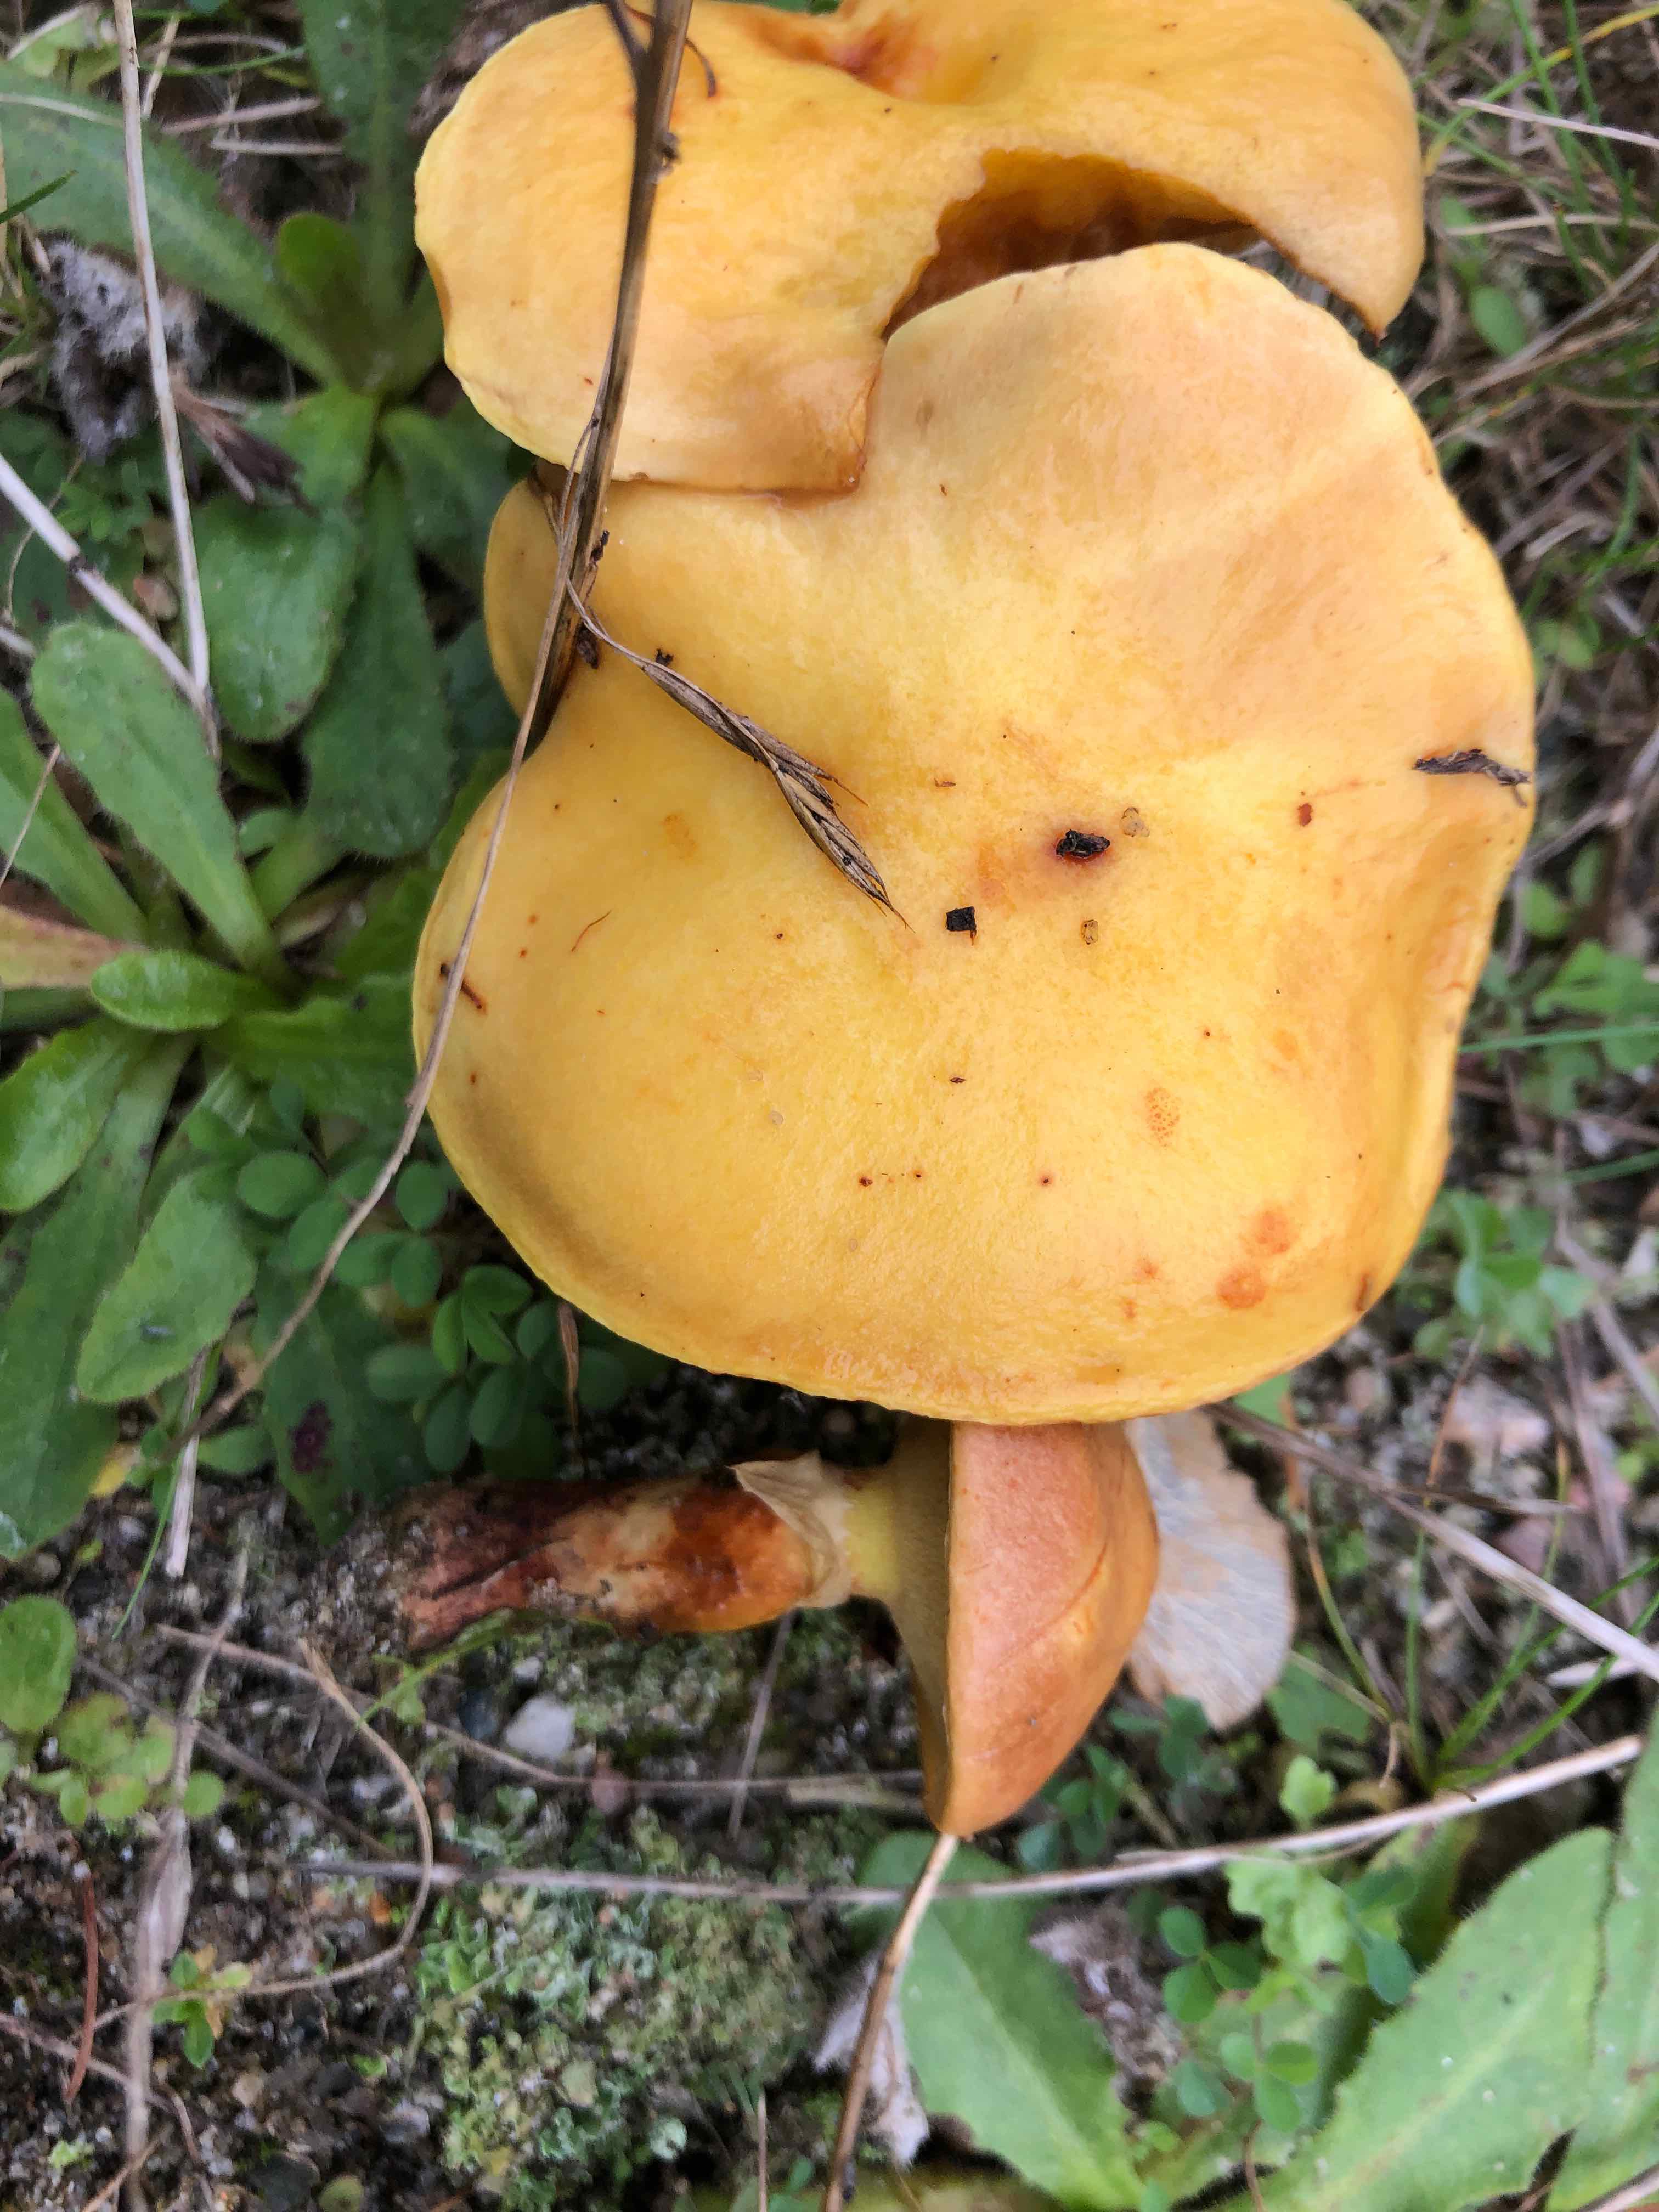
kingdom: Fungi
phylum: Basidiomycota
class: Agaricomycetes
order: Boletales
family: Suillaceae
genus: Suillus
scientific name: Suillus grevillei
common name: lærke-slimrørhat
